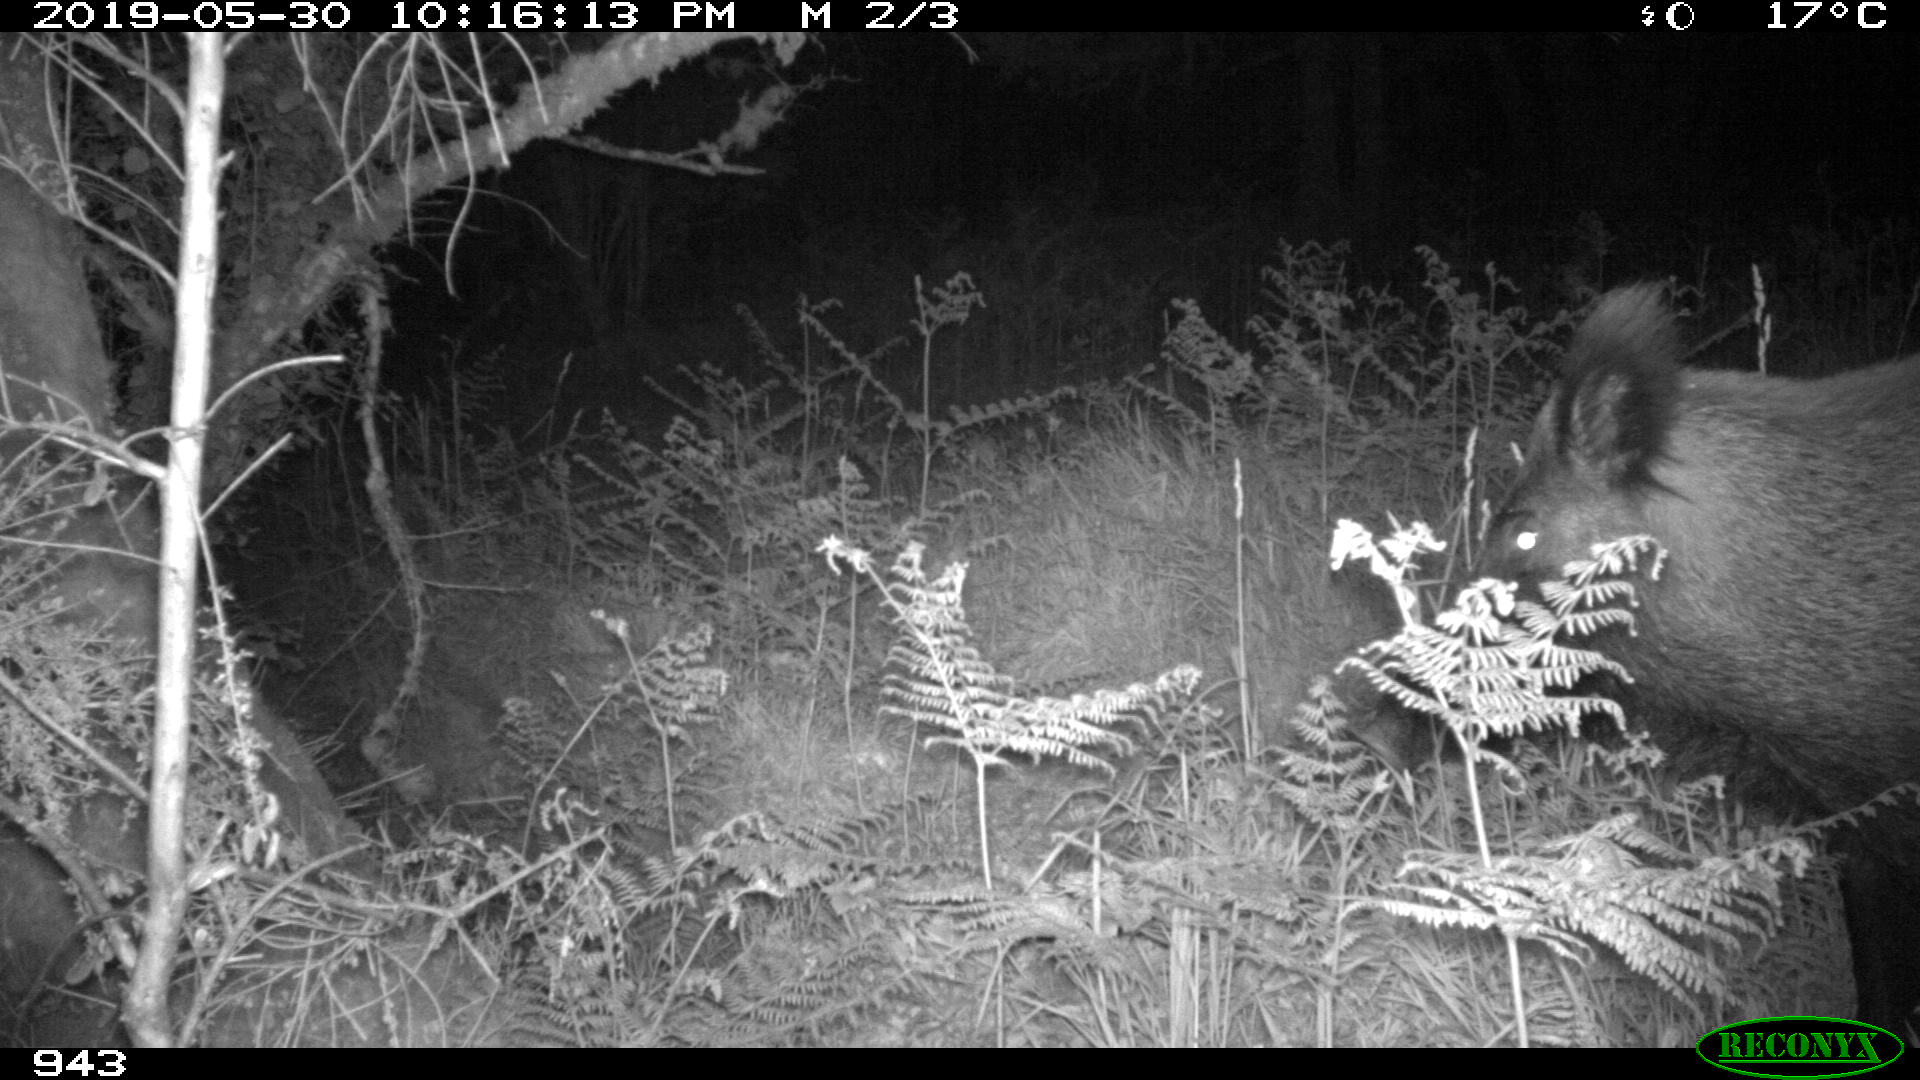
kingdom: Animalia
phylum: Chordata
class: Mammalia
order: Artiodactyla
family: Suidae
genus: Sus
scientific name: Sus scrofa
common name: Wild boar
